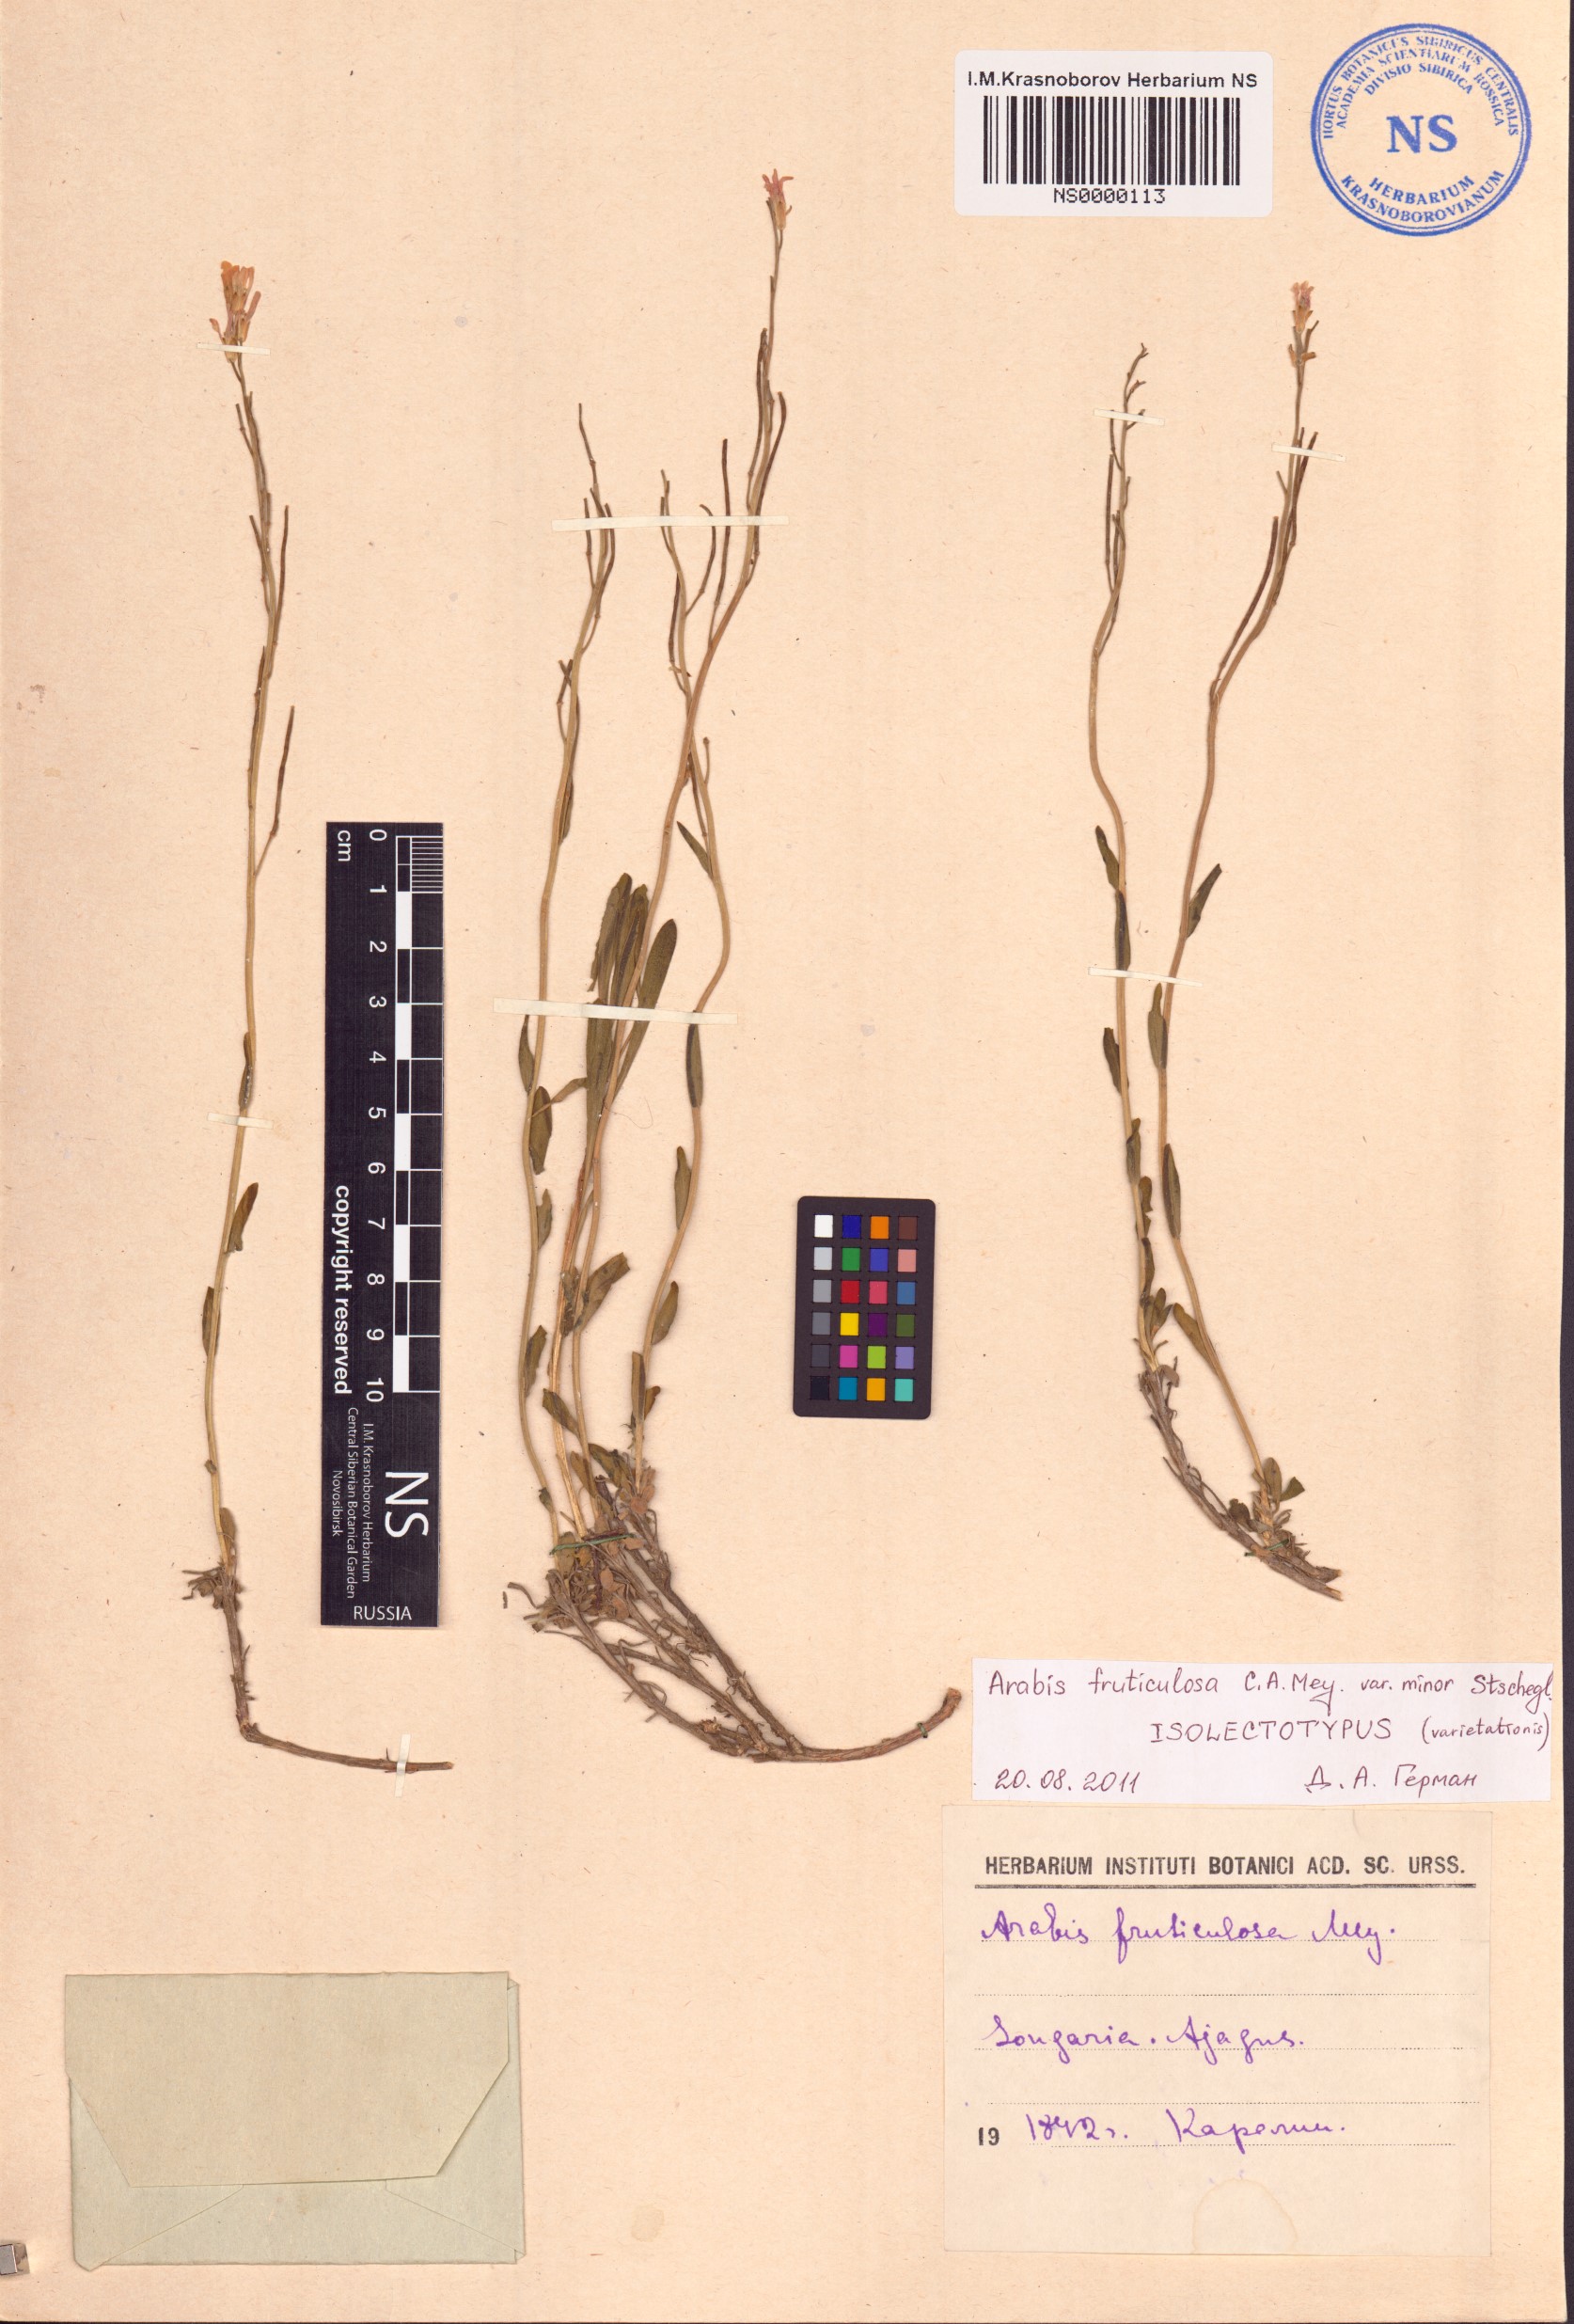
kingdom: Plantae
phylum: Tracheophyta
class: Magnoliopsida
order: Brassicales
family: Brassicaceae
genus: Dendroarabis
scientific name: Dendroarabis fruticulosa
